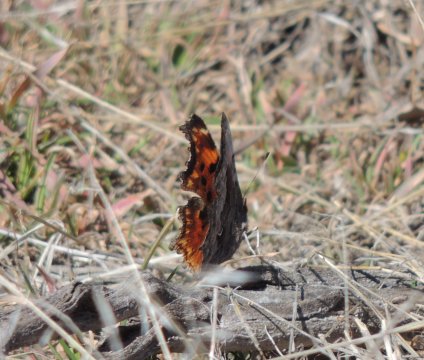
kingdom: Animalia
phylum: Arthropoda
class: Insecta
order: Lepidoptera
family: Nymphalidae
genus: Polygonia
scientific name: Polygonia gracilis
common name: Hoary Comma
